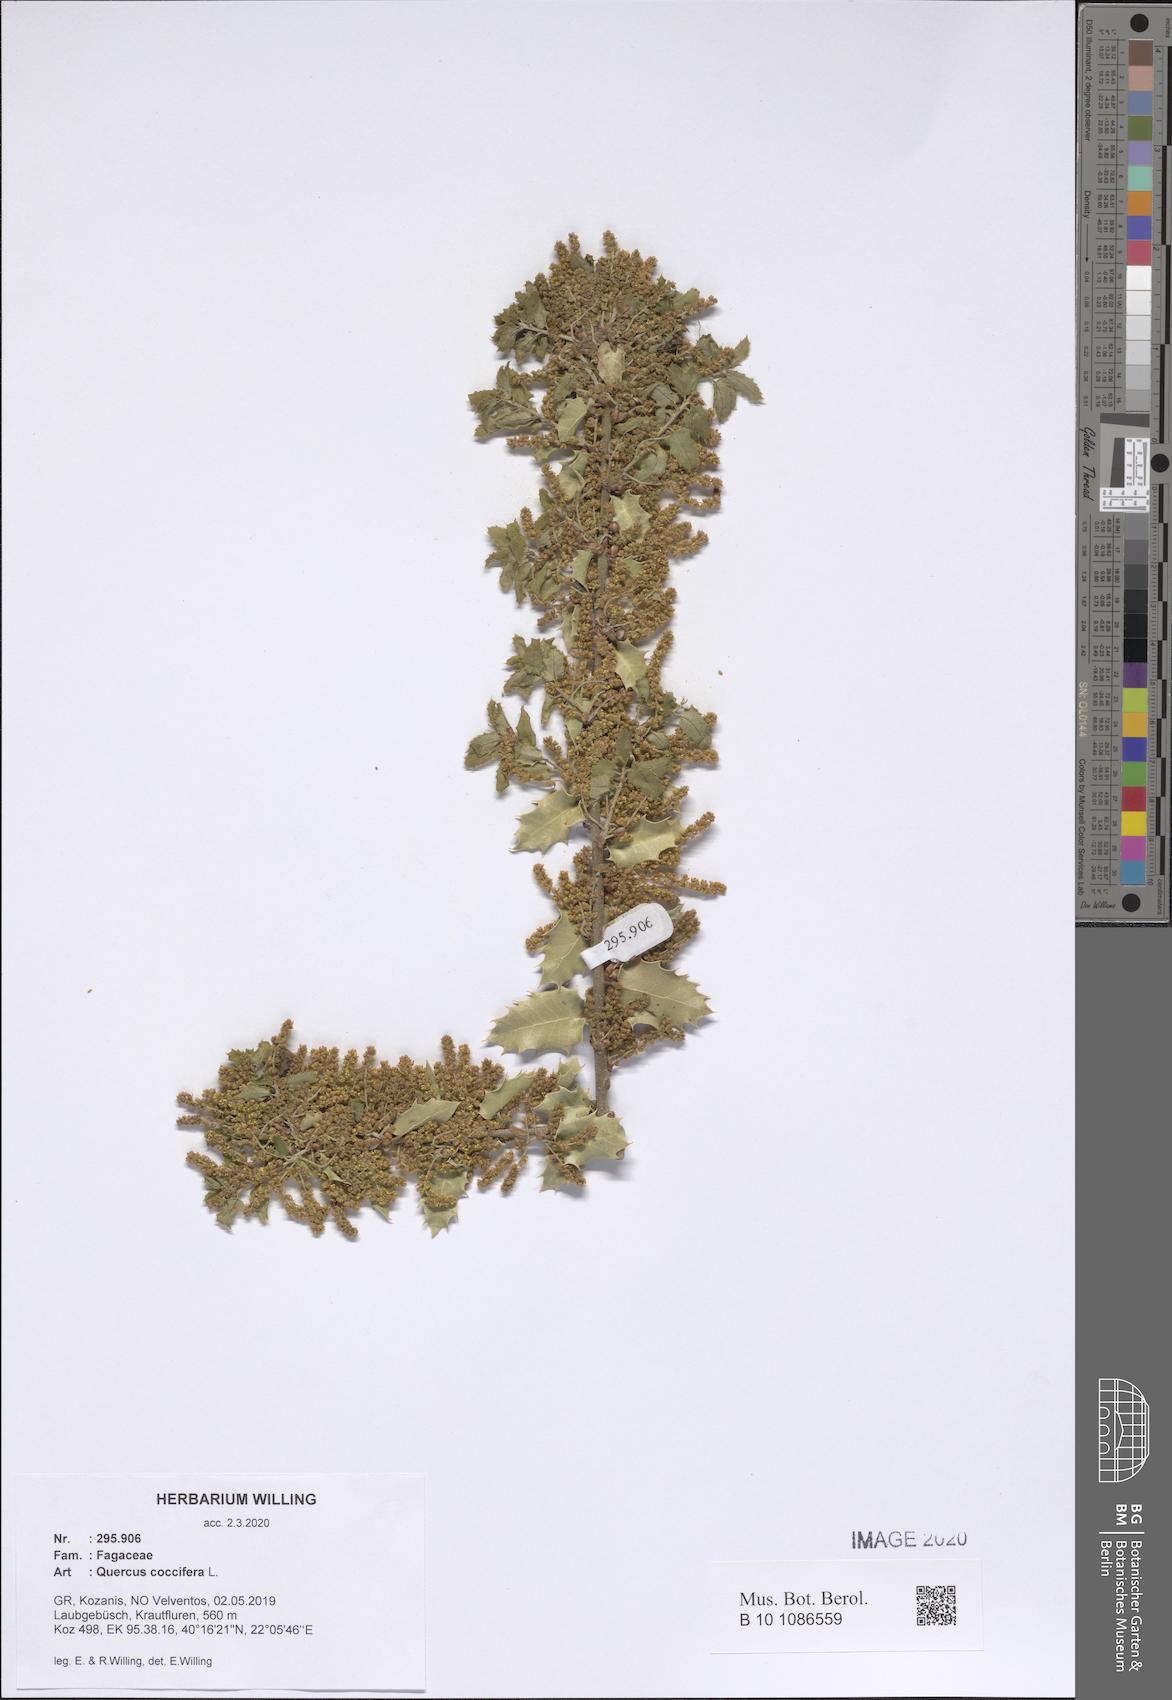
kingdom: Plantae
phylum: Tracheophyta
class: Magnoliopsida
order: Fagales
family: Fagaceae
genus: Quercus
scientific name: Quercus coccifera
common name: Kermes oak
